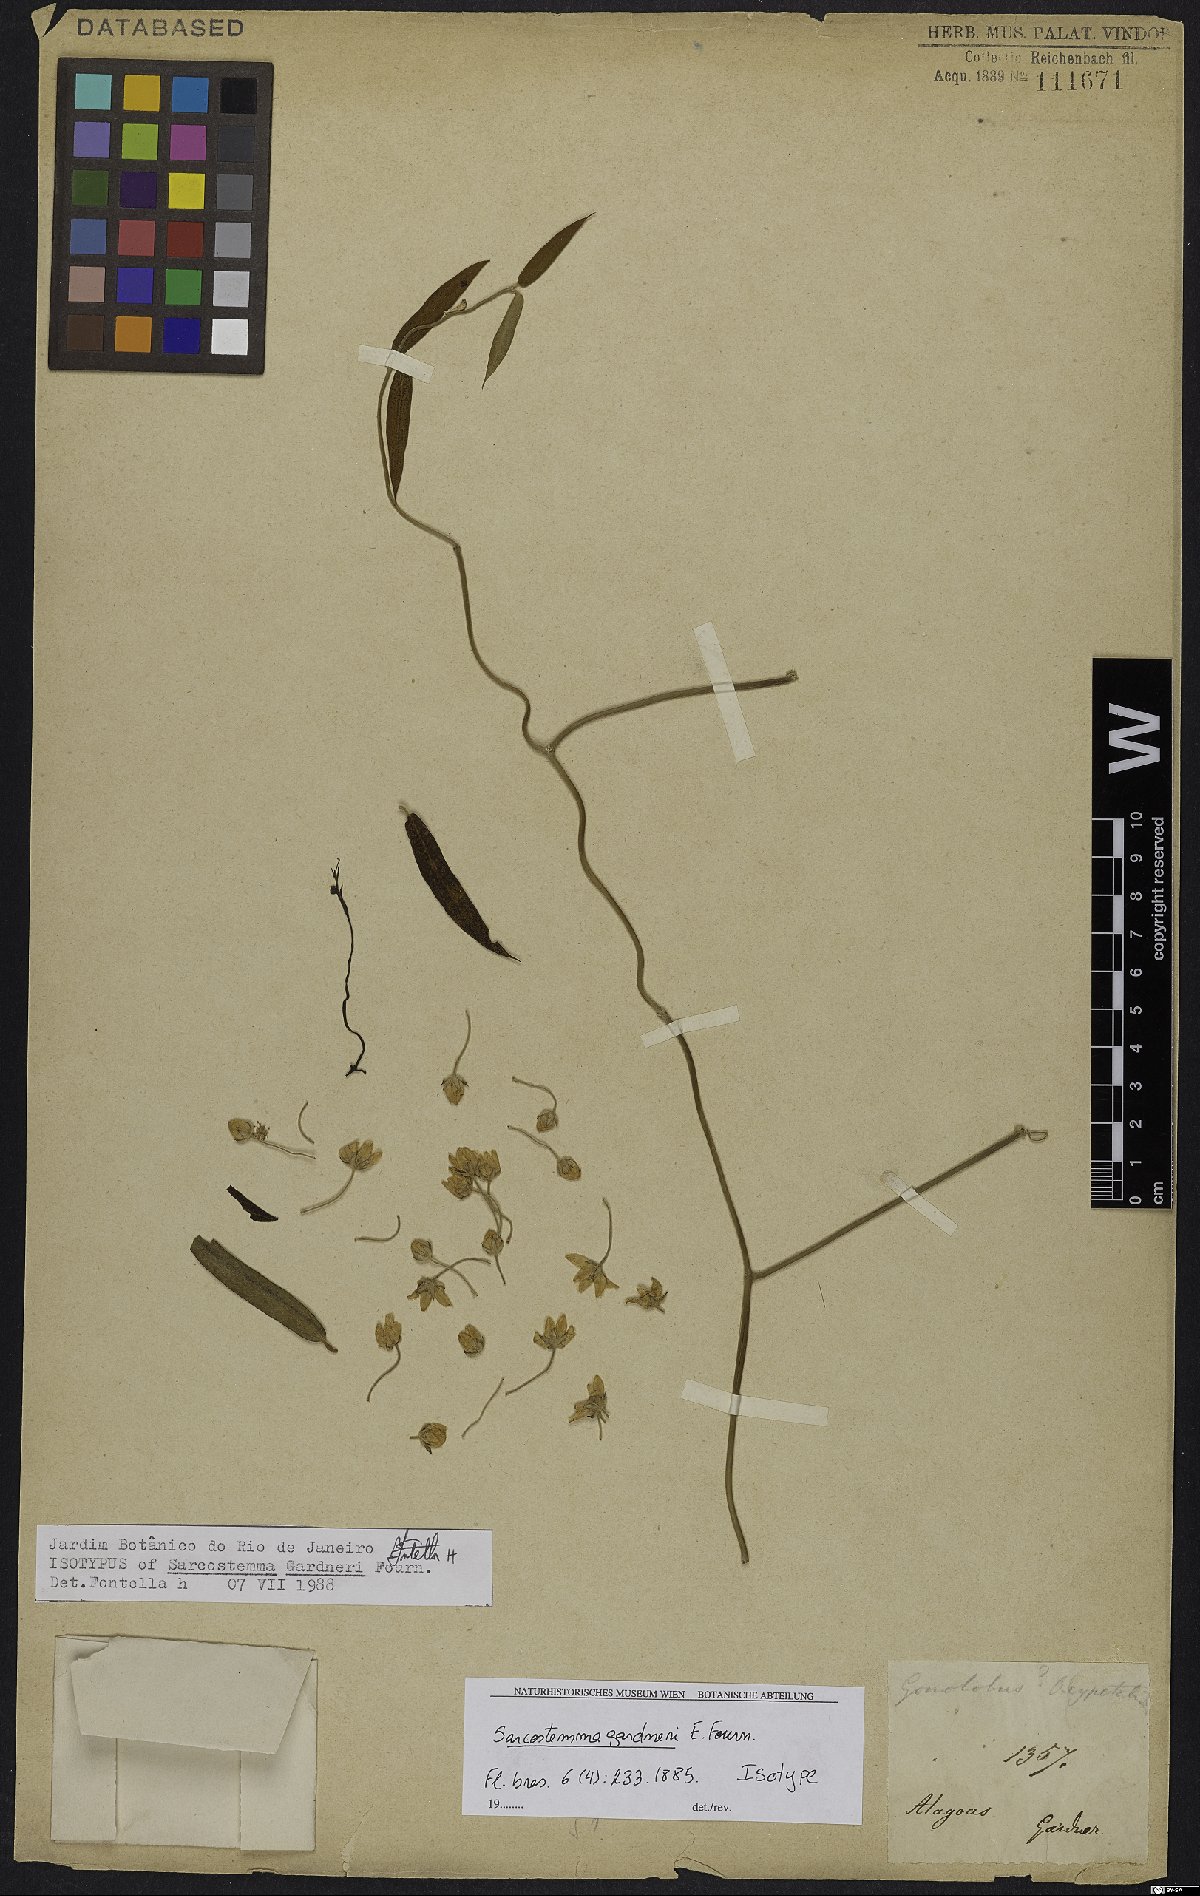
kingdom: Plantae
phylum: Tracheophyta
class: Magnoliopsida
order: Gentianales
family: Apocynaceae
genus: Funastrum
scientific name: Funastrum clausum
